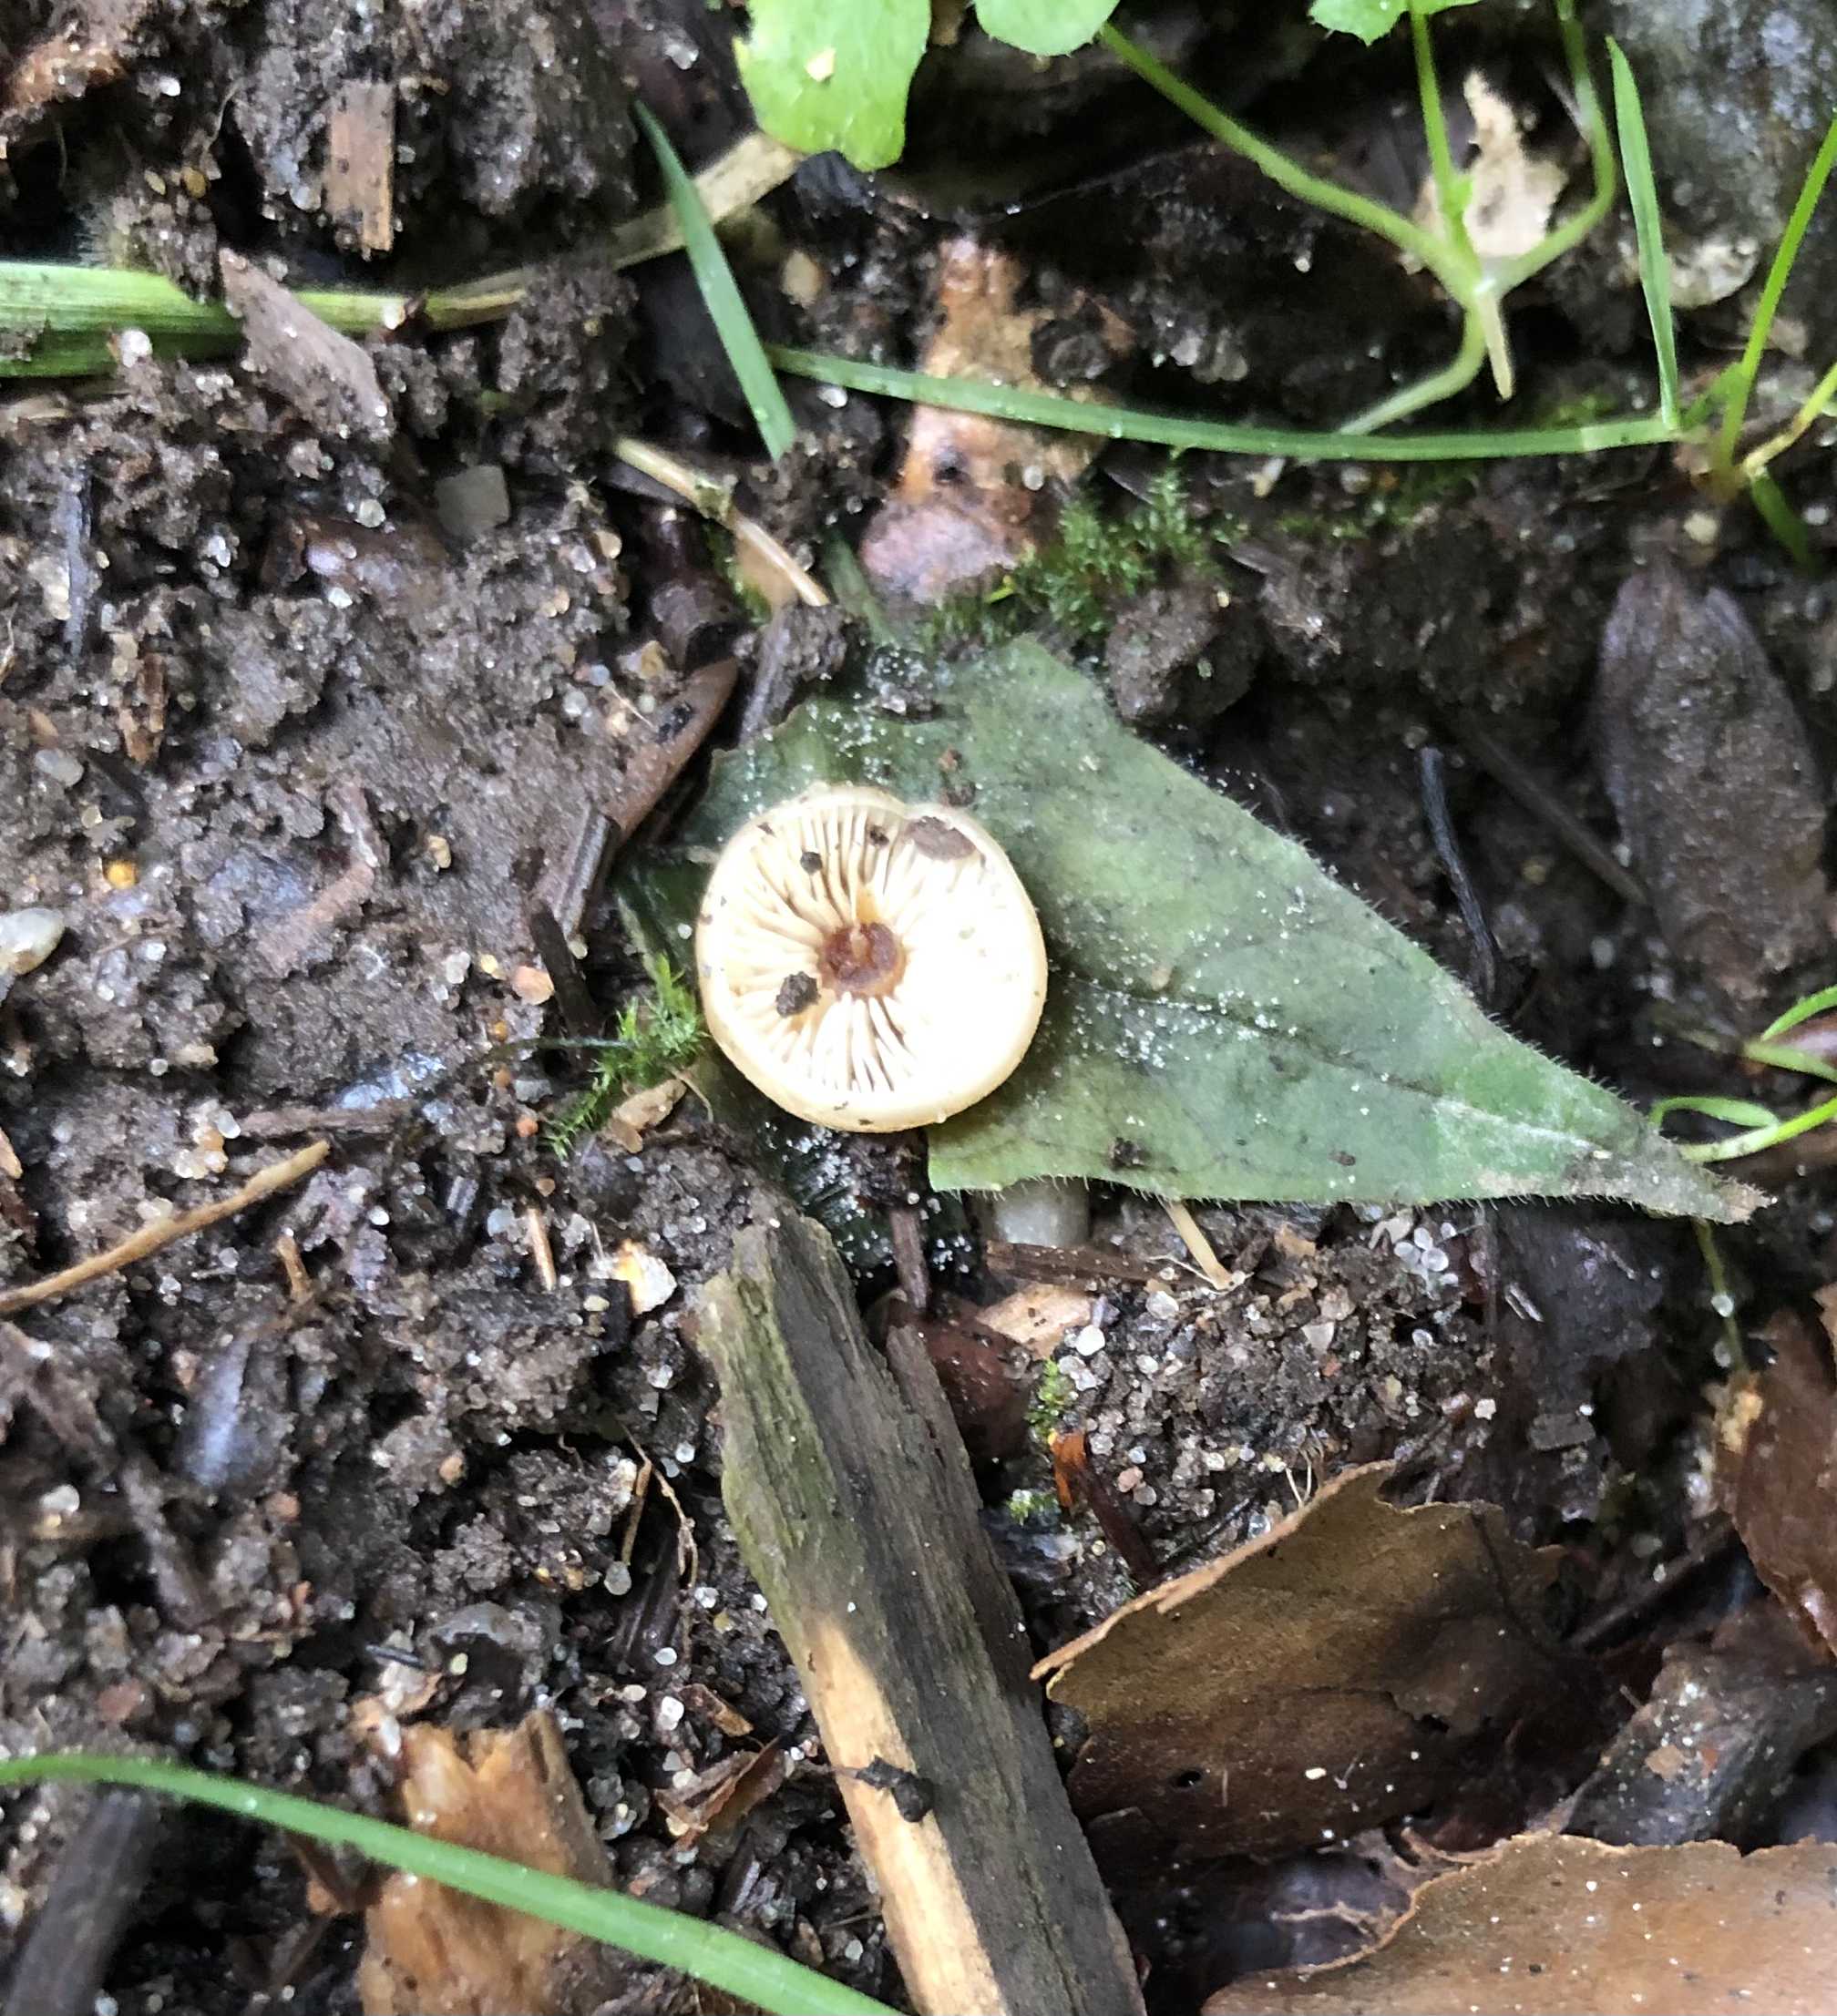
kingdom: Fungi
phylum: Basidiomycota
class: Agaricomycetes
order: Agaricales
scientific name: Agaricales
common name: champignonordenen
